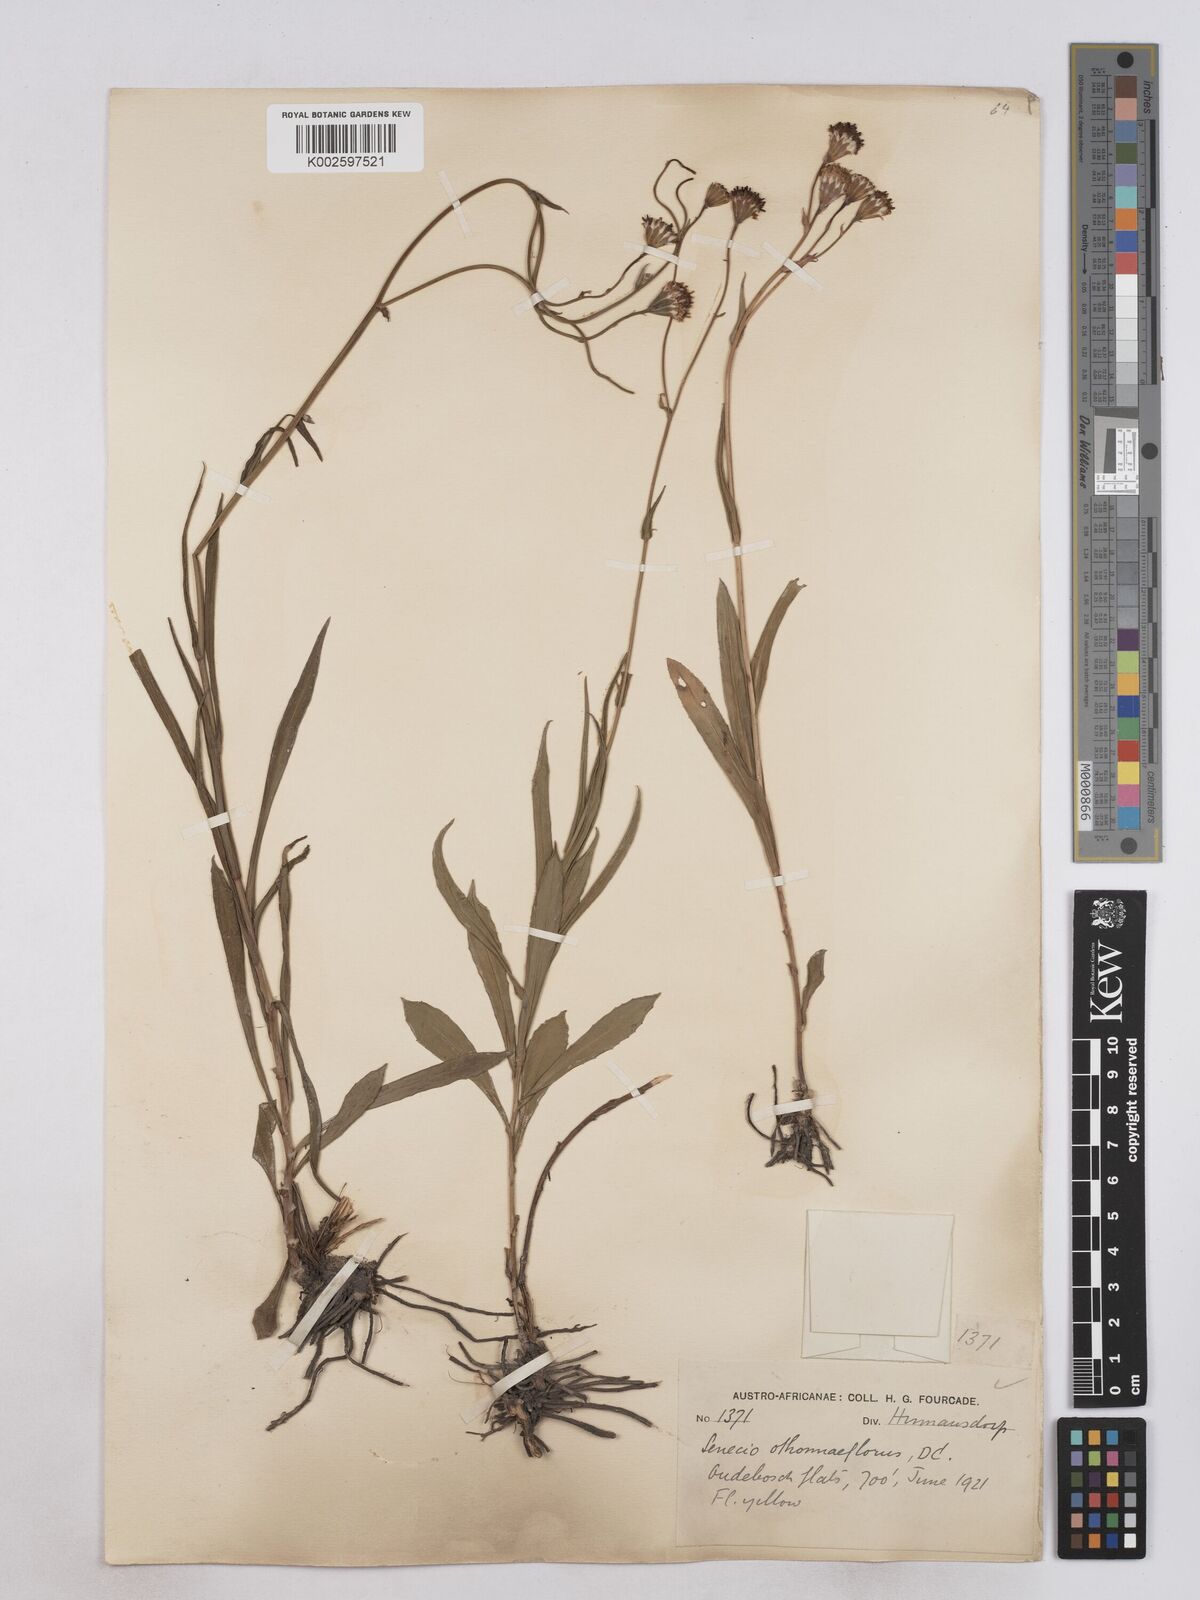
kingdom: Plantae
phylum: Tracheophyta
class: Magnoliopsida
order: Asterales
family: Asteraceae
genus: Senecio
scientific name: Senecio othonniflorus
